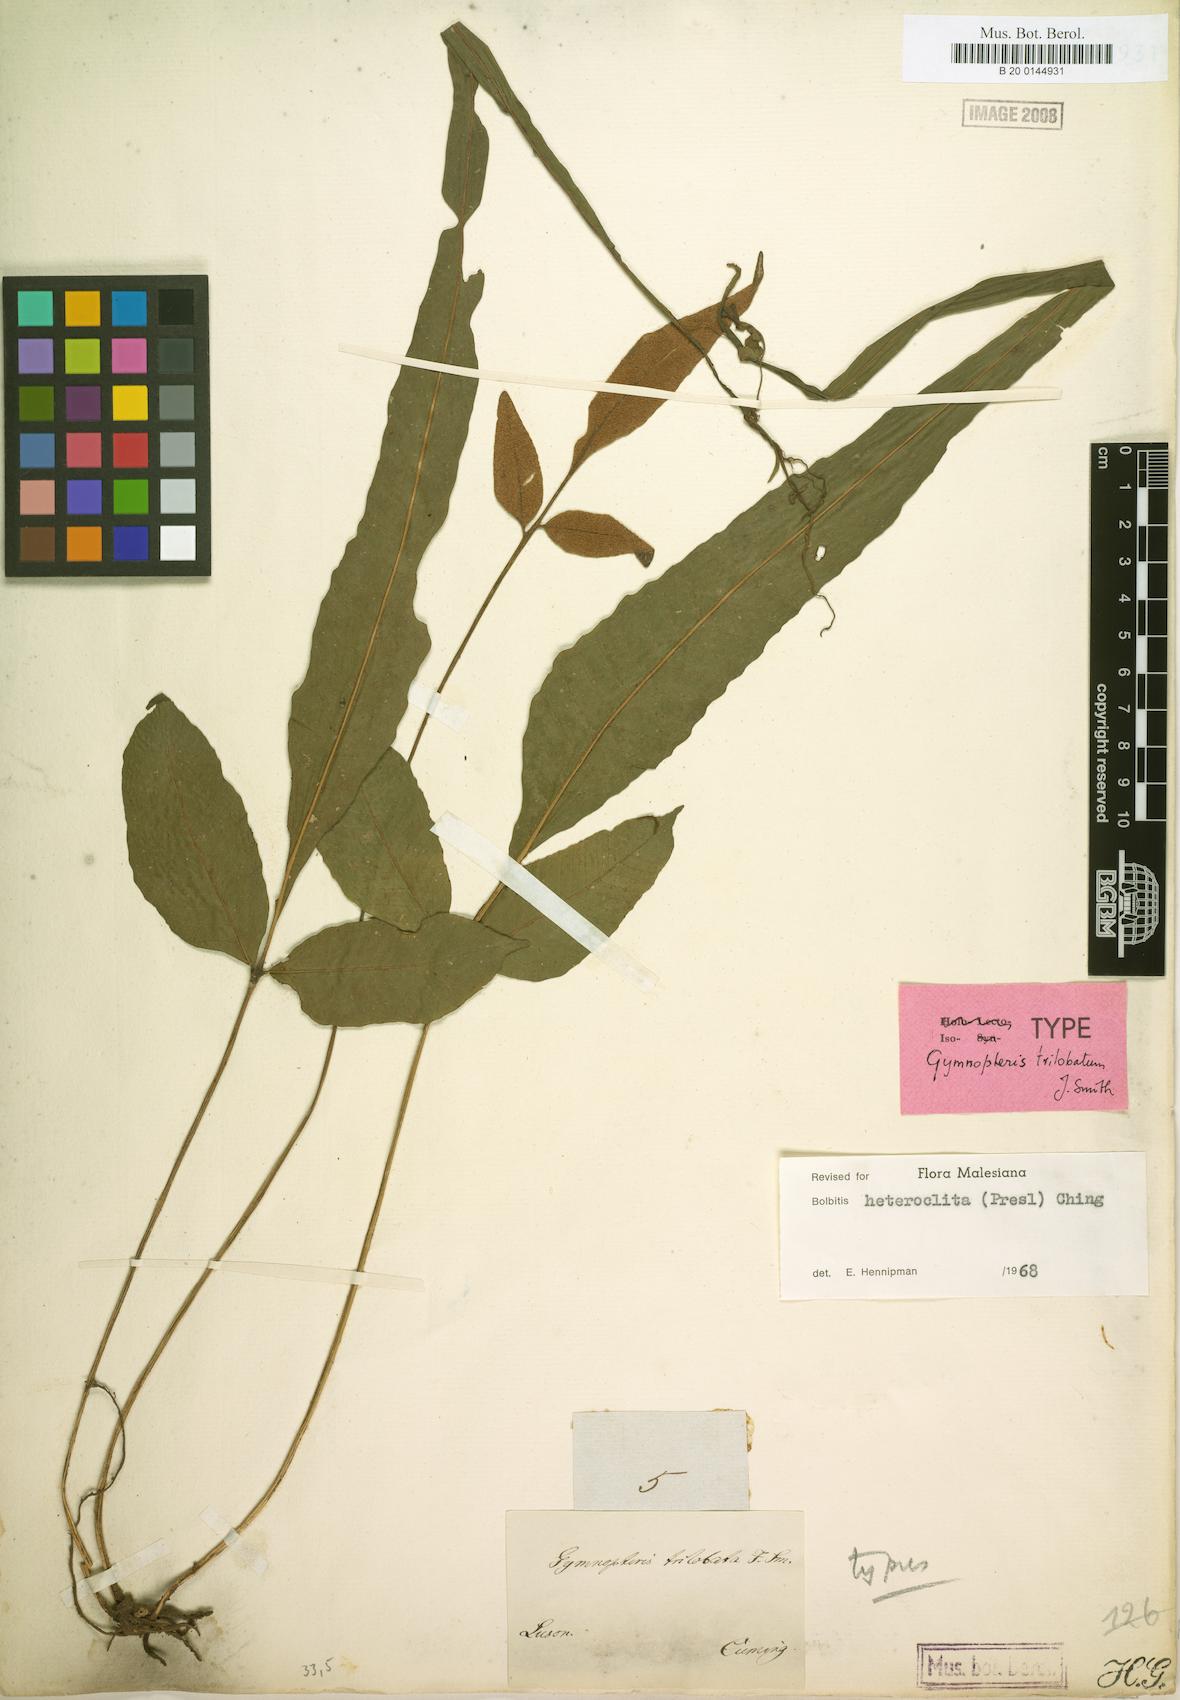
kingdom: Plantae
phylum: Tracheophyta
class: Polypodiopsida
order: Polypodiales
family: Dryopteridaceae
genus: Bolbitis
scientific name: Bolbitis heteroclita
